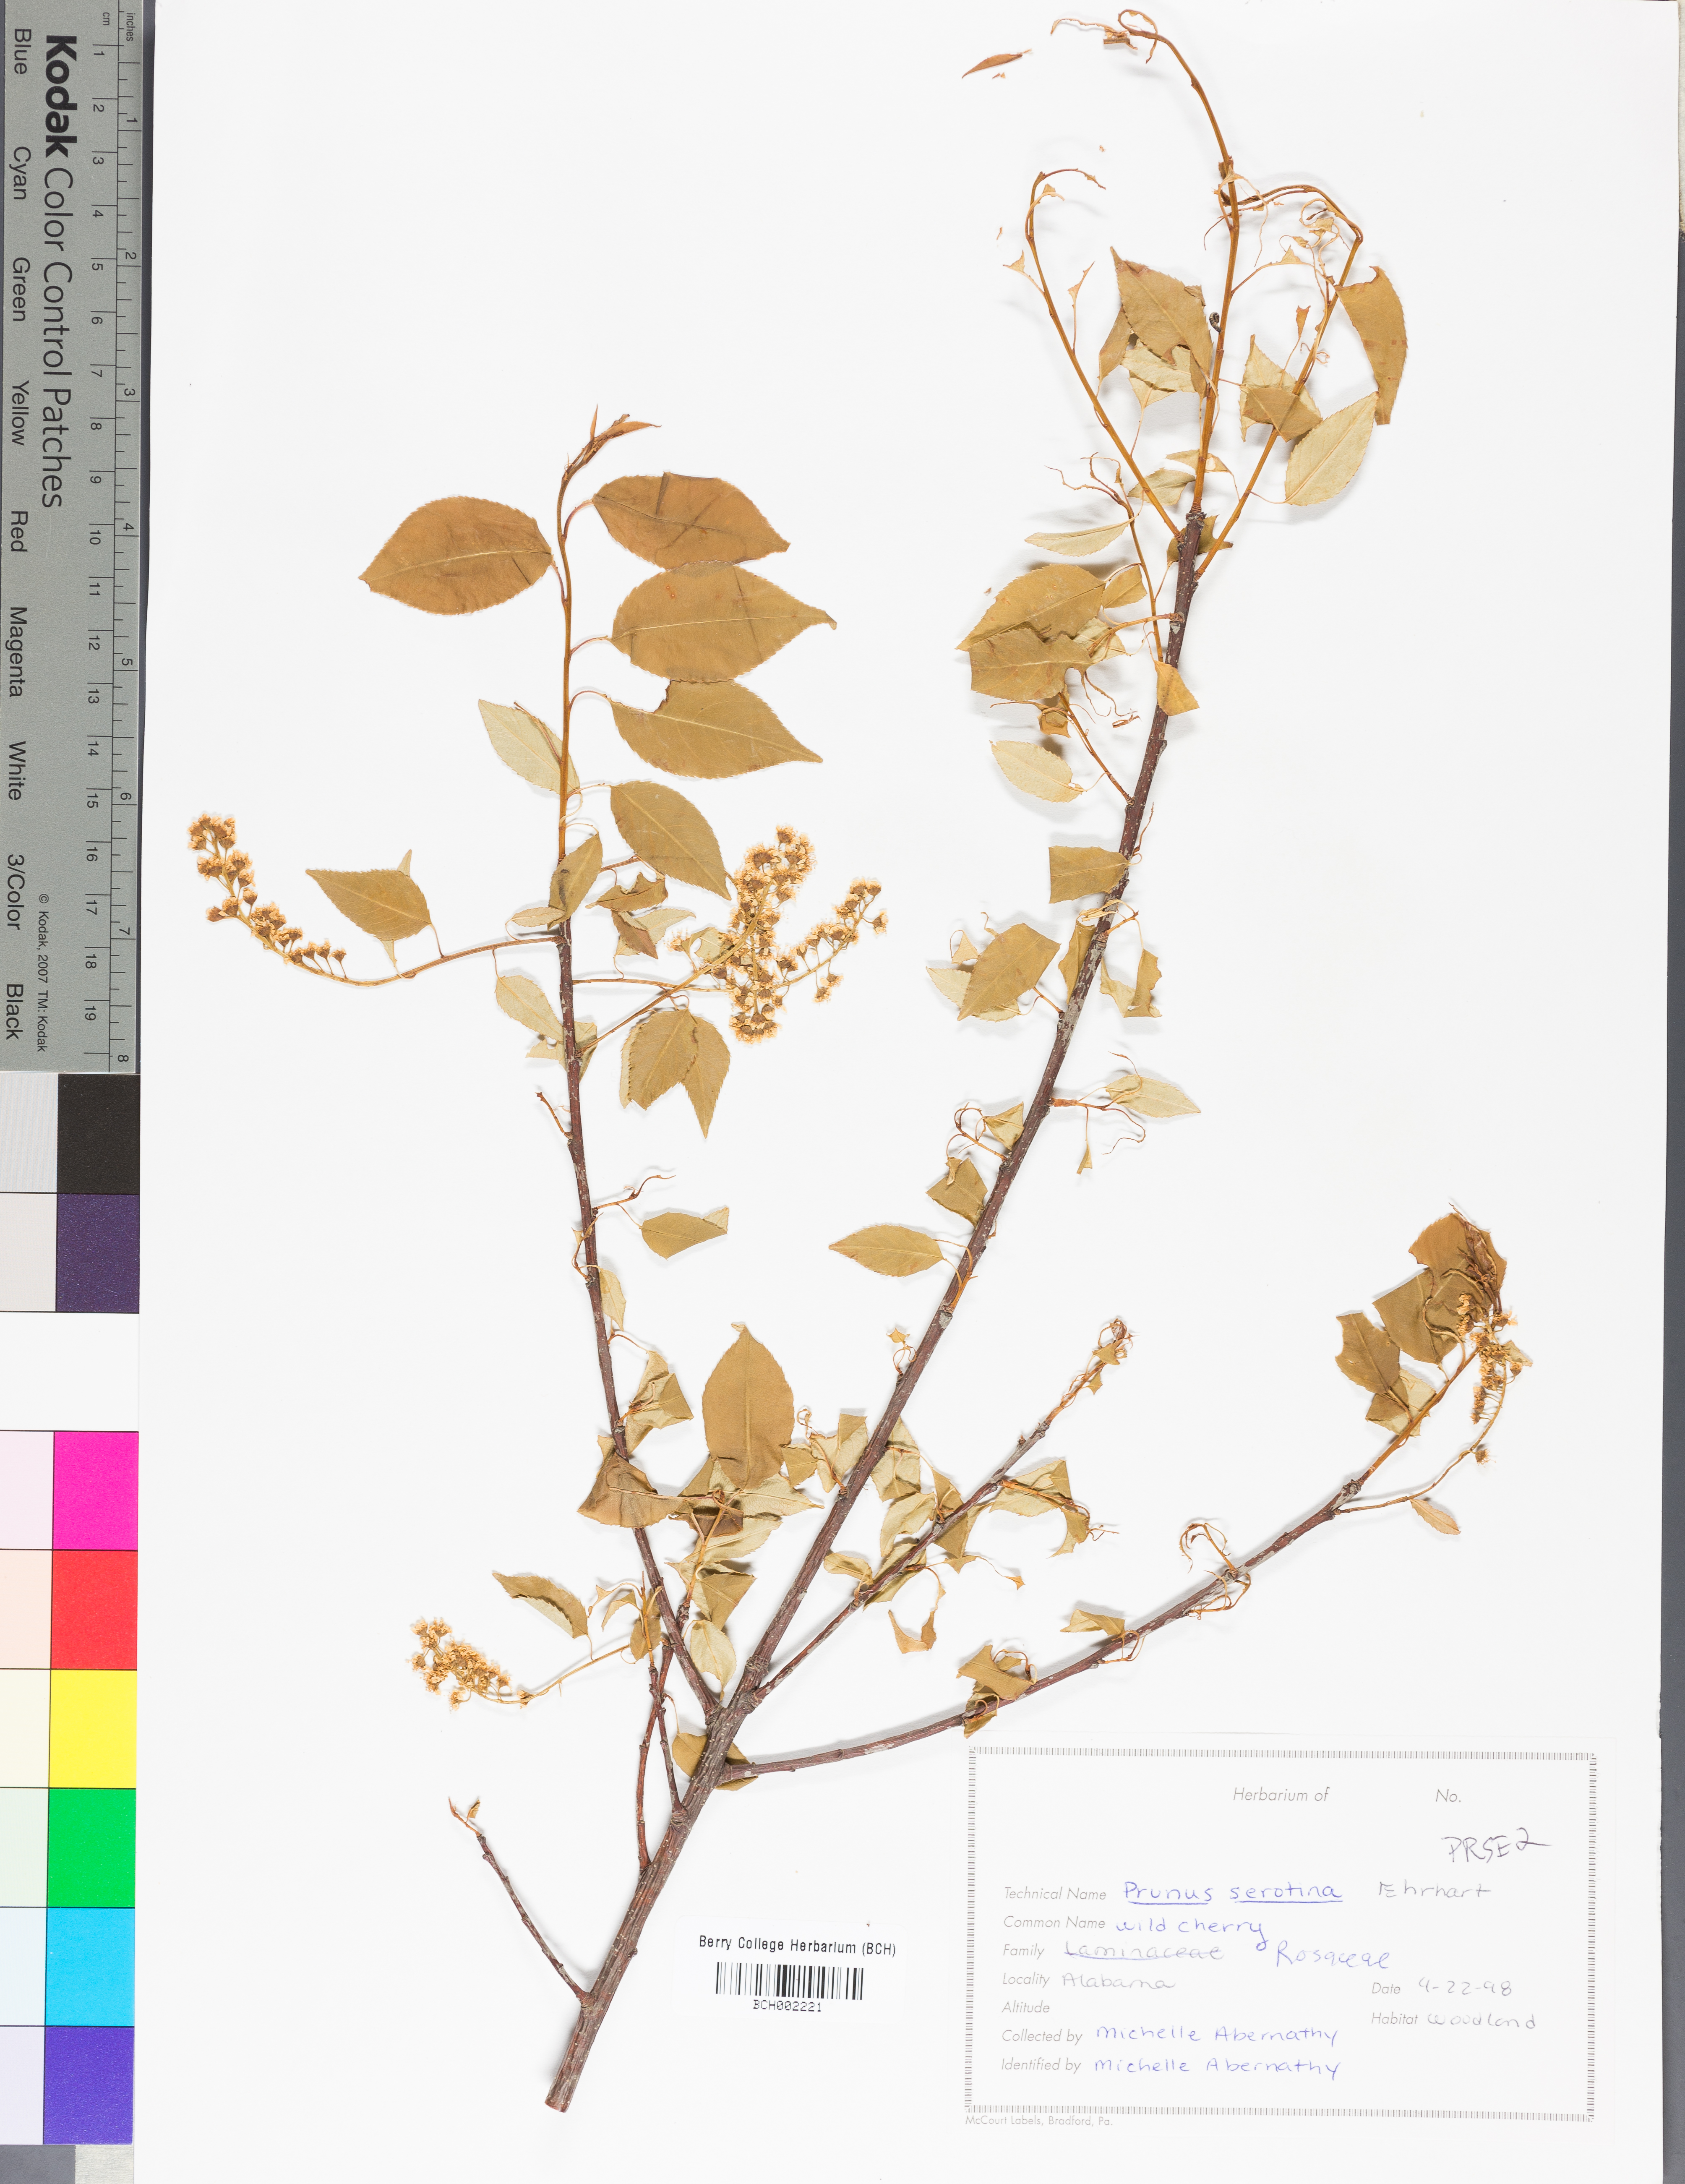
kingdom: Plantae
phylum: Tracheophyta
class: Magnoliopsida
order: Rosales
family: Rosaceae
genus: Prunus
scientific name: Prunus serotina
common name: Black cherry
